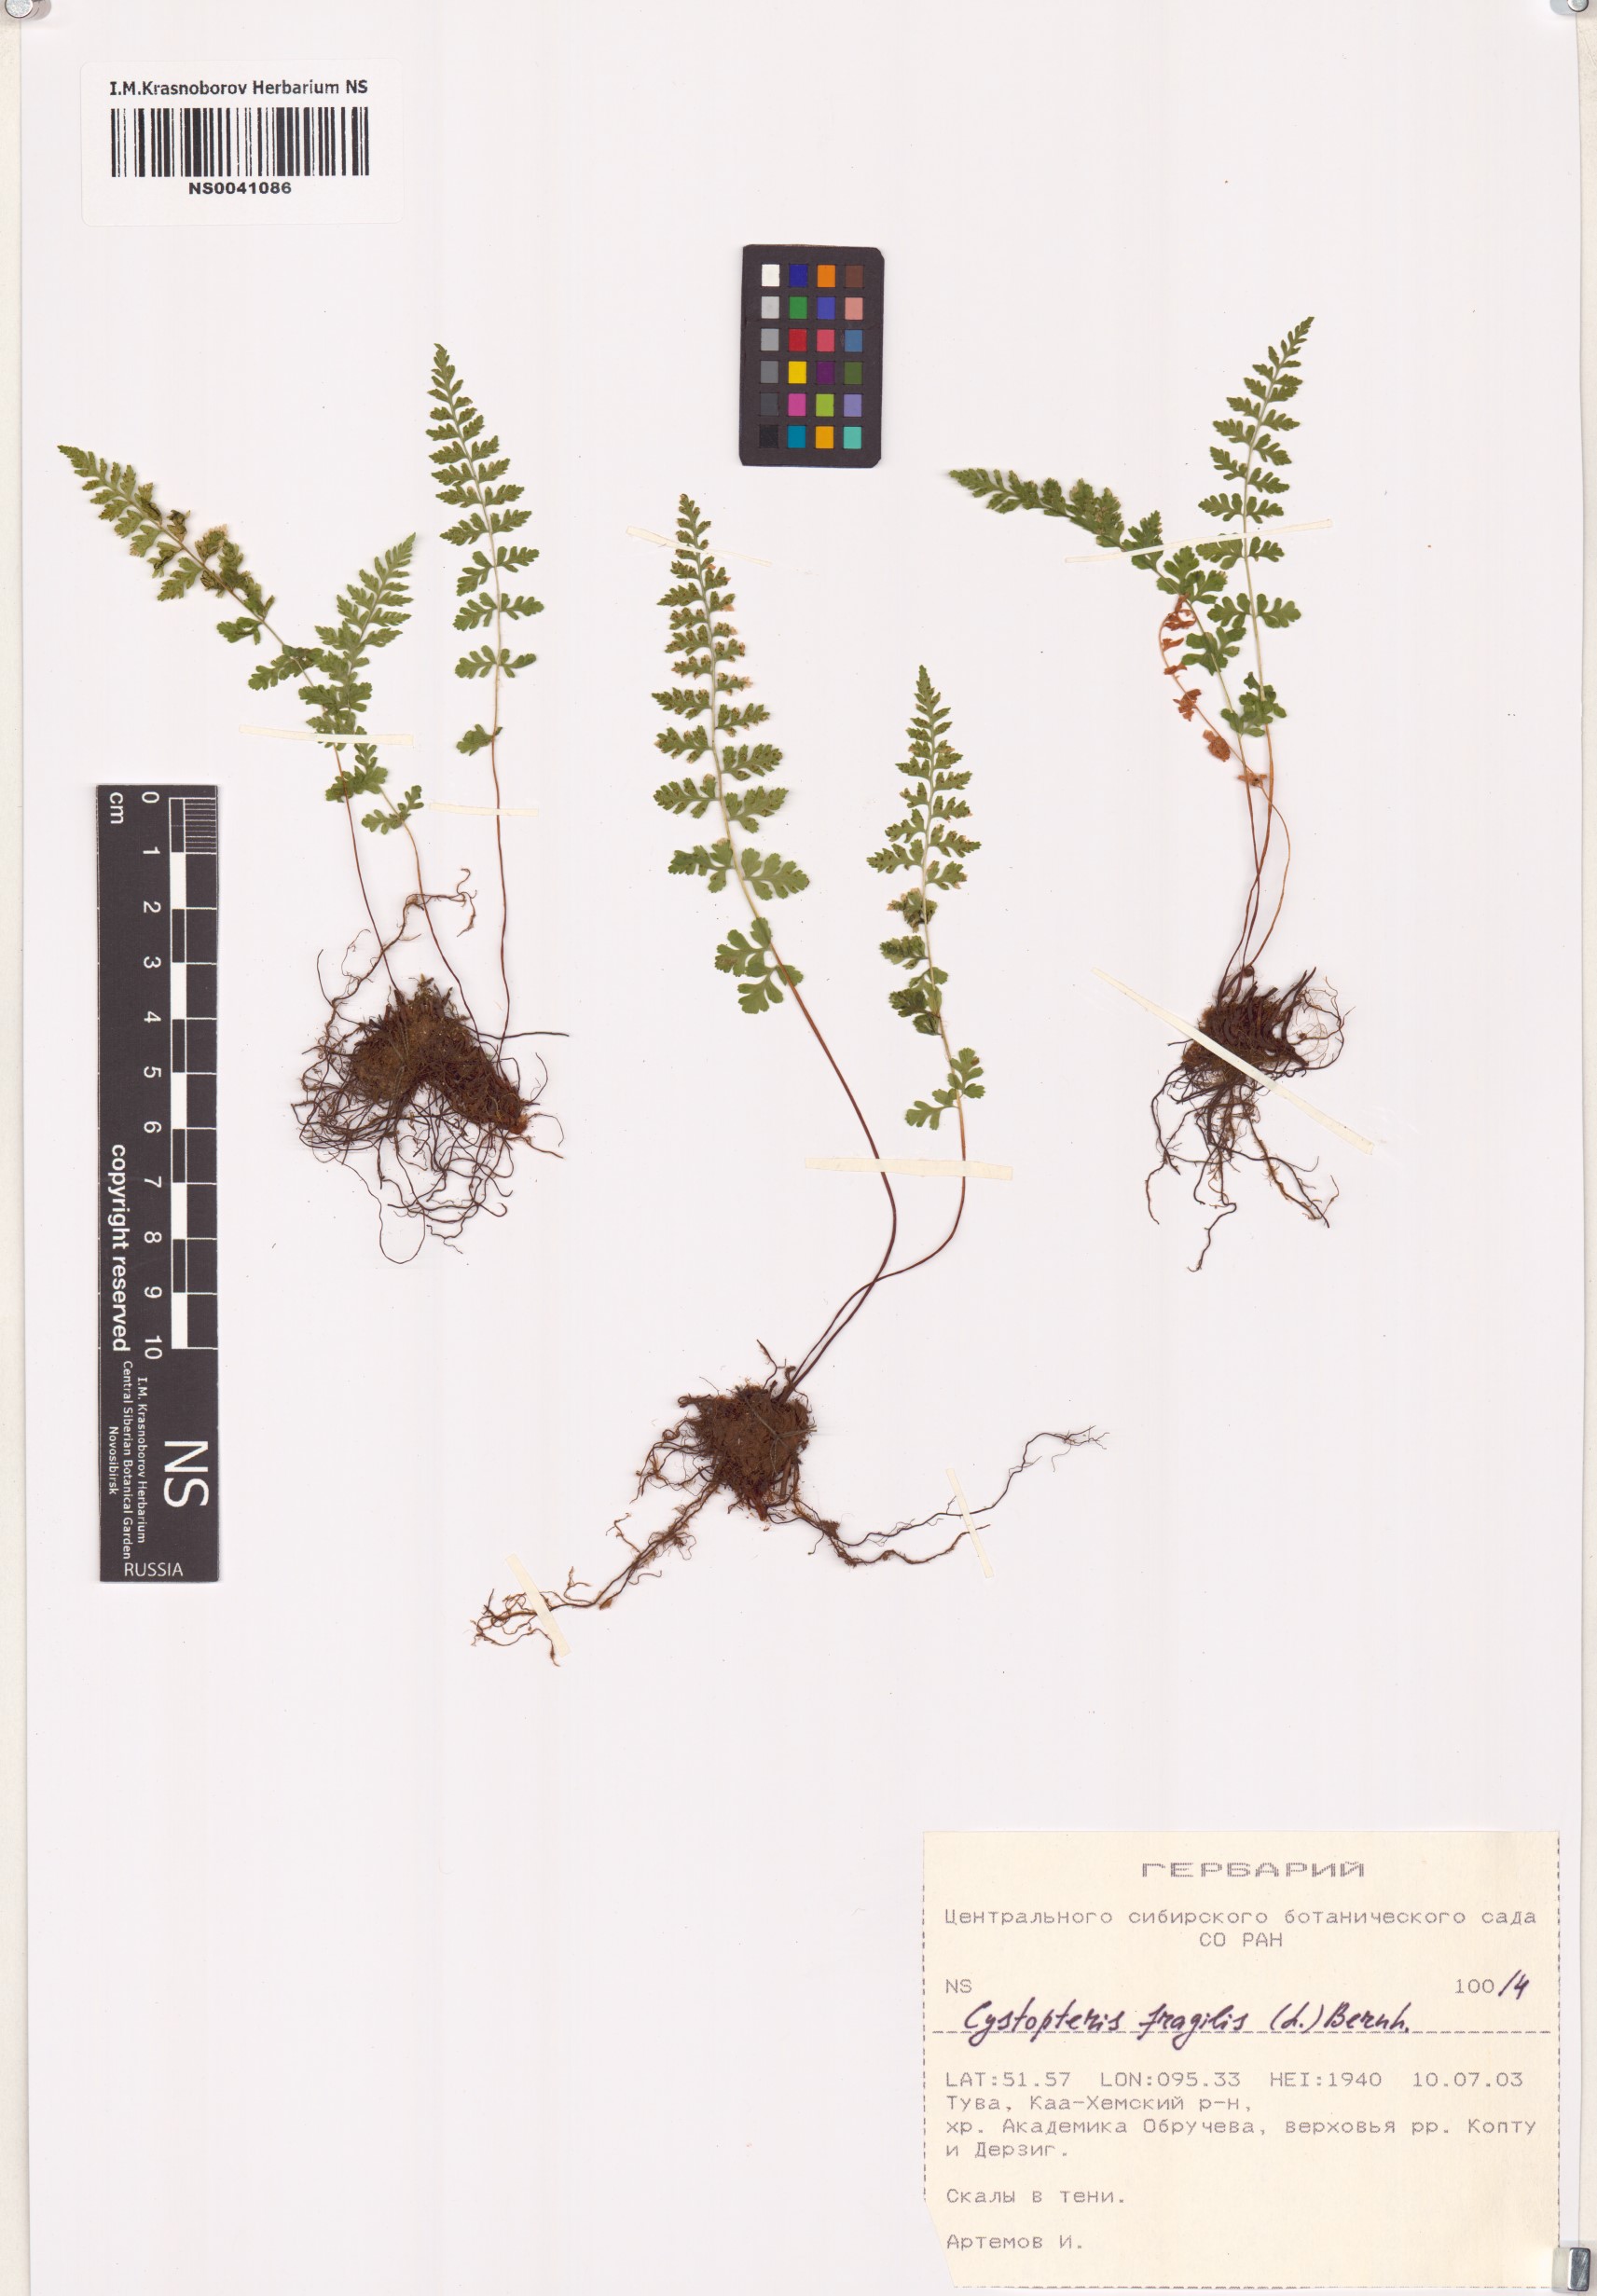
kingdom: Plantae
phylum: Tracheophyta
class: Polypodiopsida
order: Polypodiales
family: Cystopteridaceae
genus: Cystopteris
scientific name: Cystopteris fragilis
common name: Brittle bladder fern
